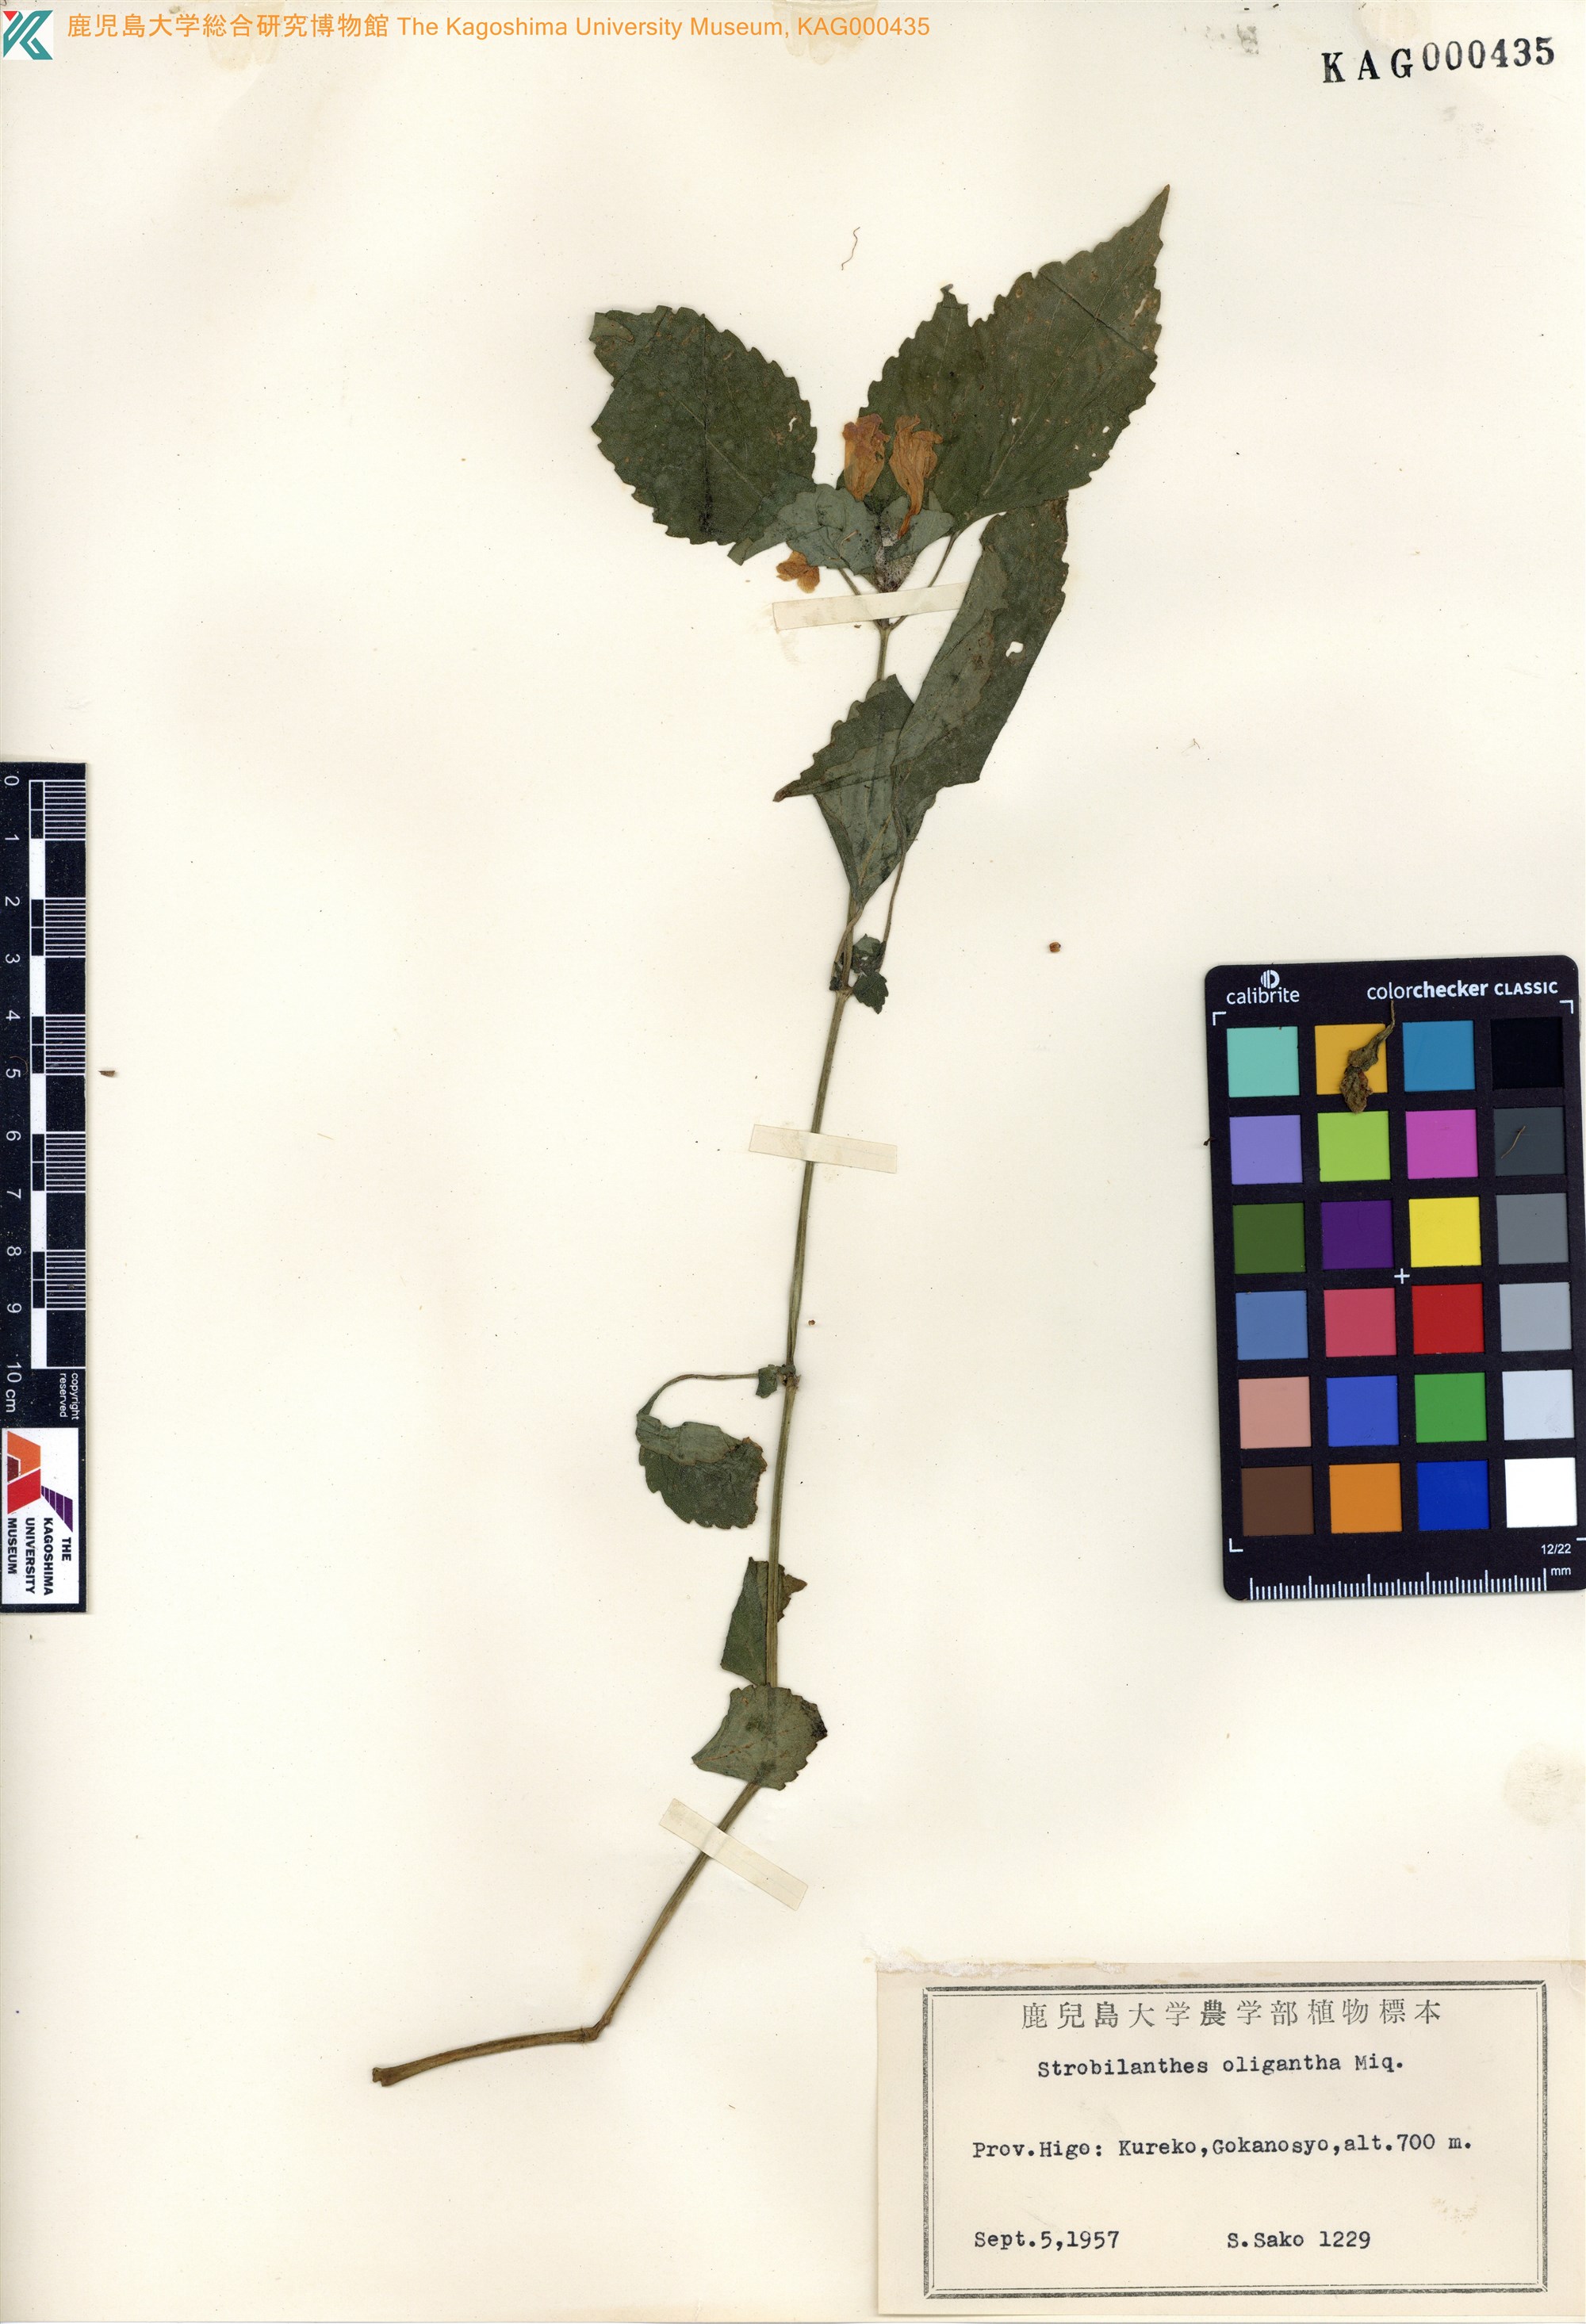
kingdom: Plantae
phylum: Tracheophyta
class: Magnoliopsida
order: Lamiales
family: Acanthaceae
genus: Strobilanthes
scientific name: Strobilanthes oligantha
